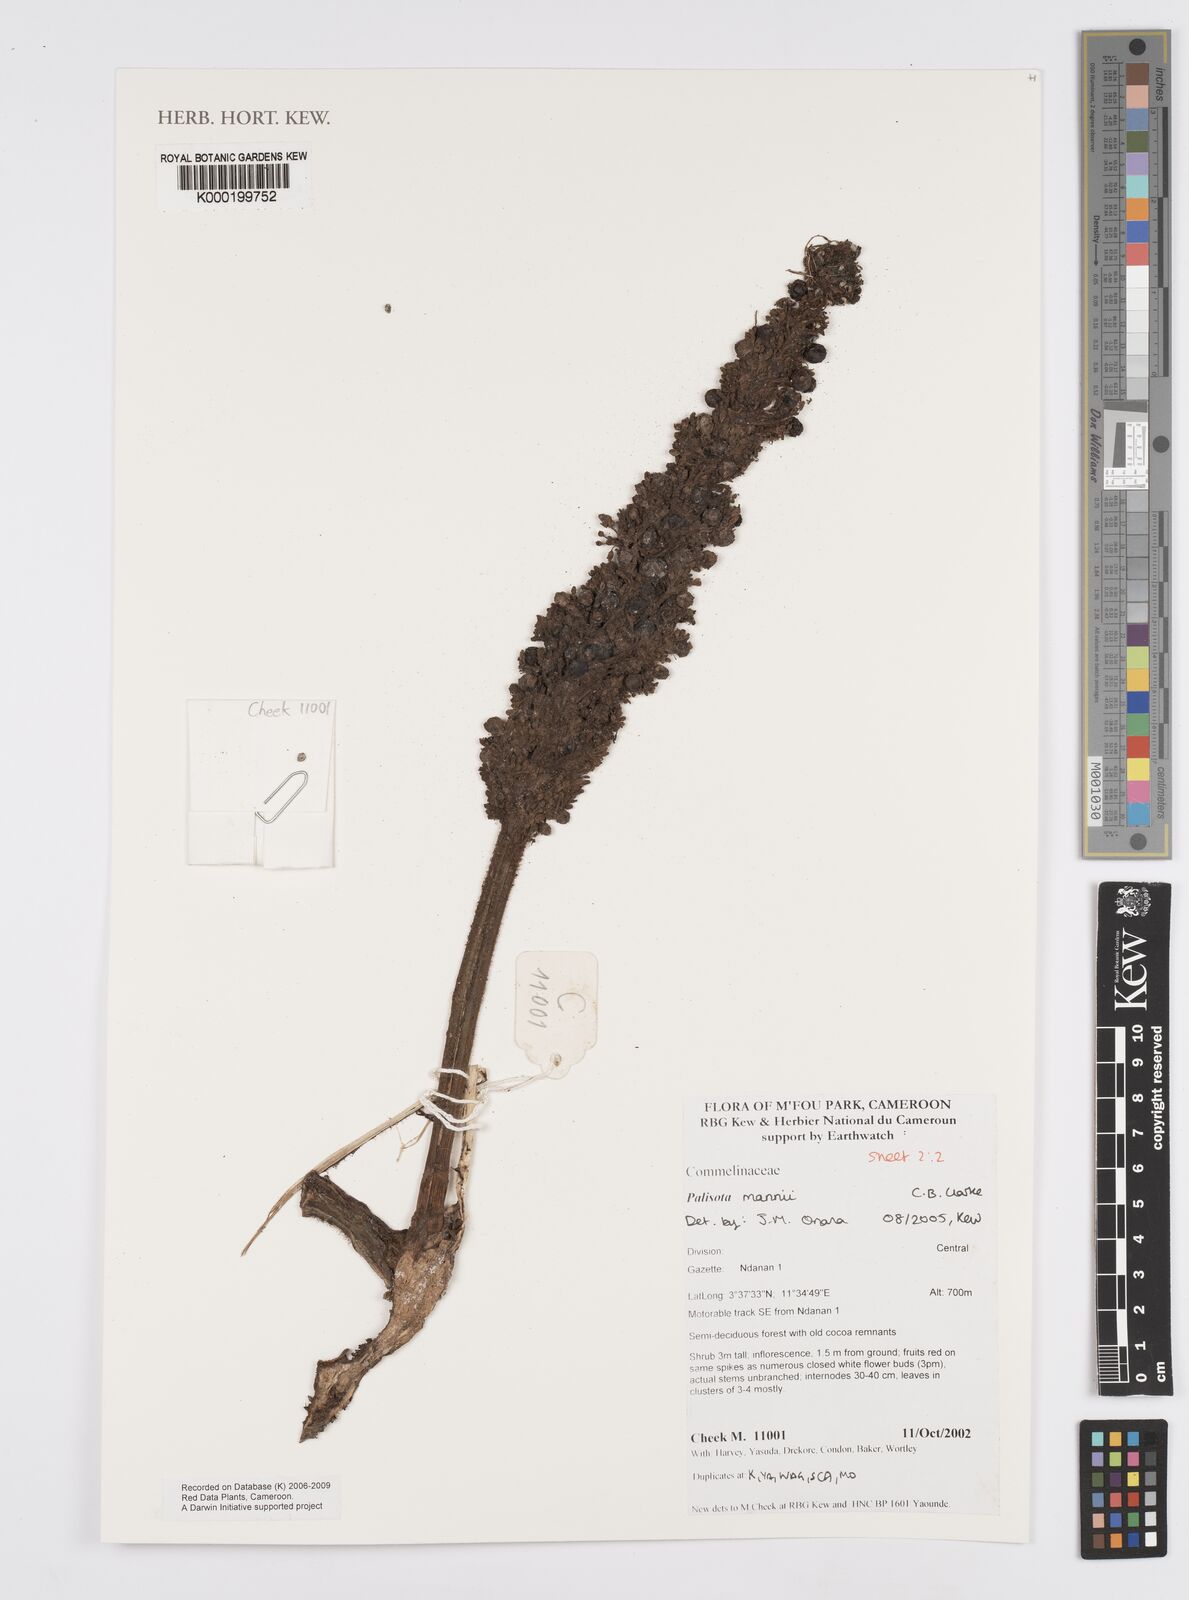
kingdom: Plantae
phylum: Tracheophyta
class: Liliopsida
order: Commelinales
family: Commelinaceae
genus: Palisota
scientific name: Palisota mannii
